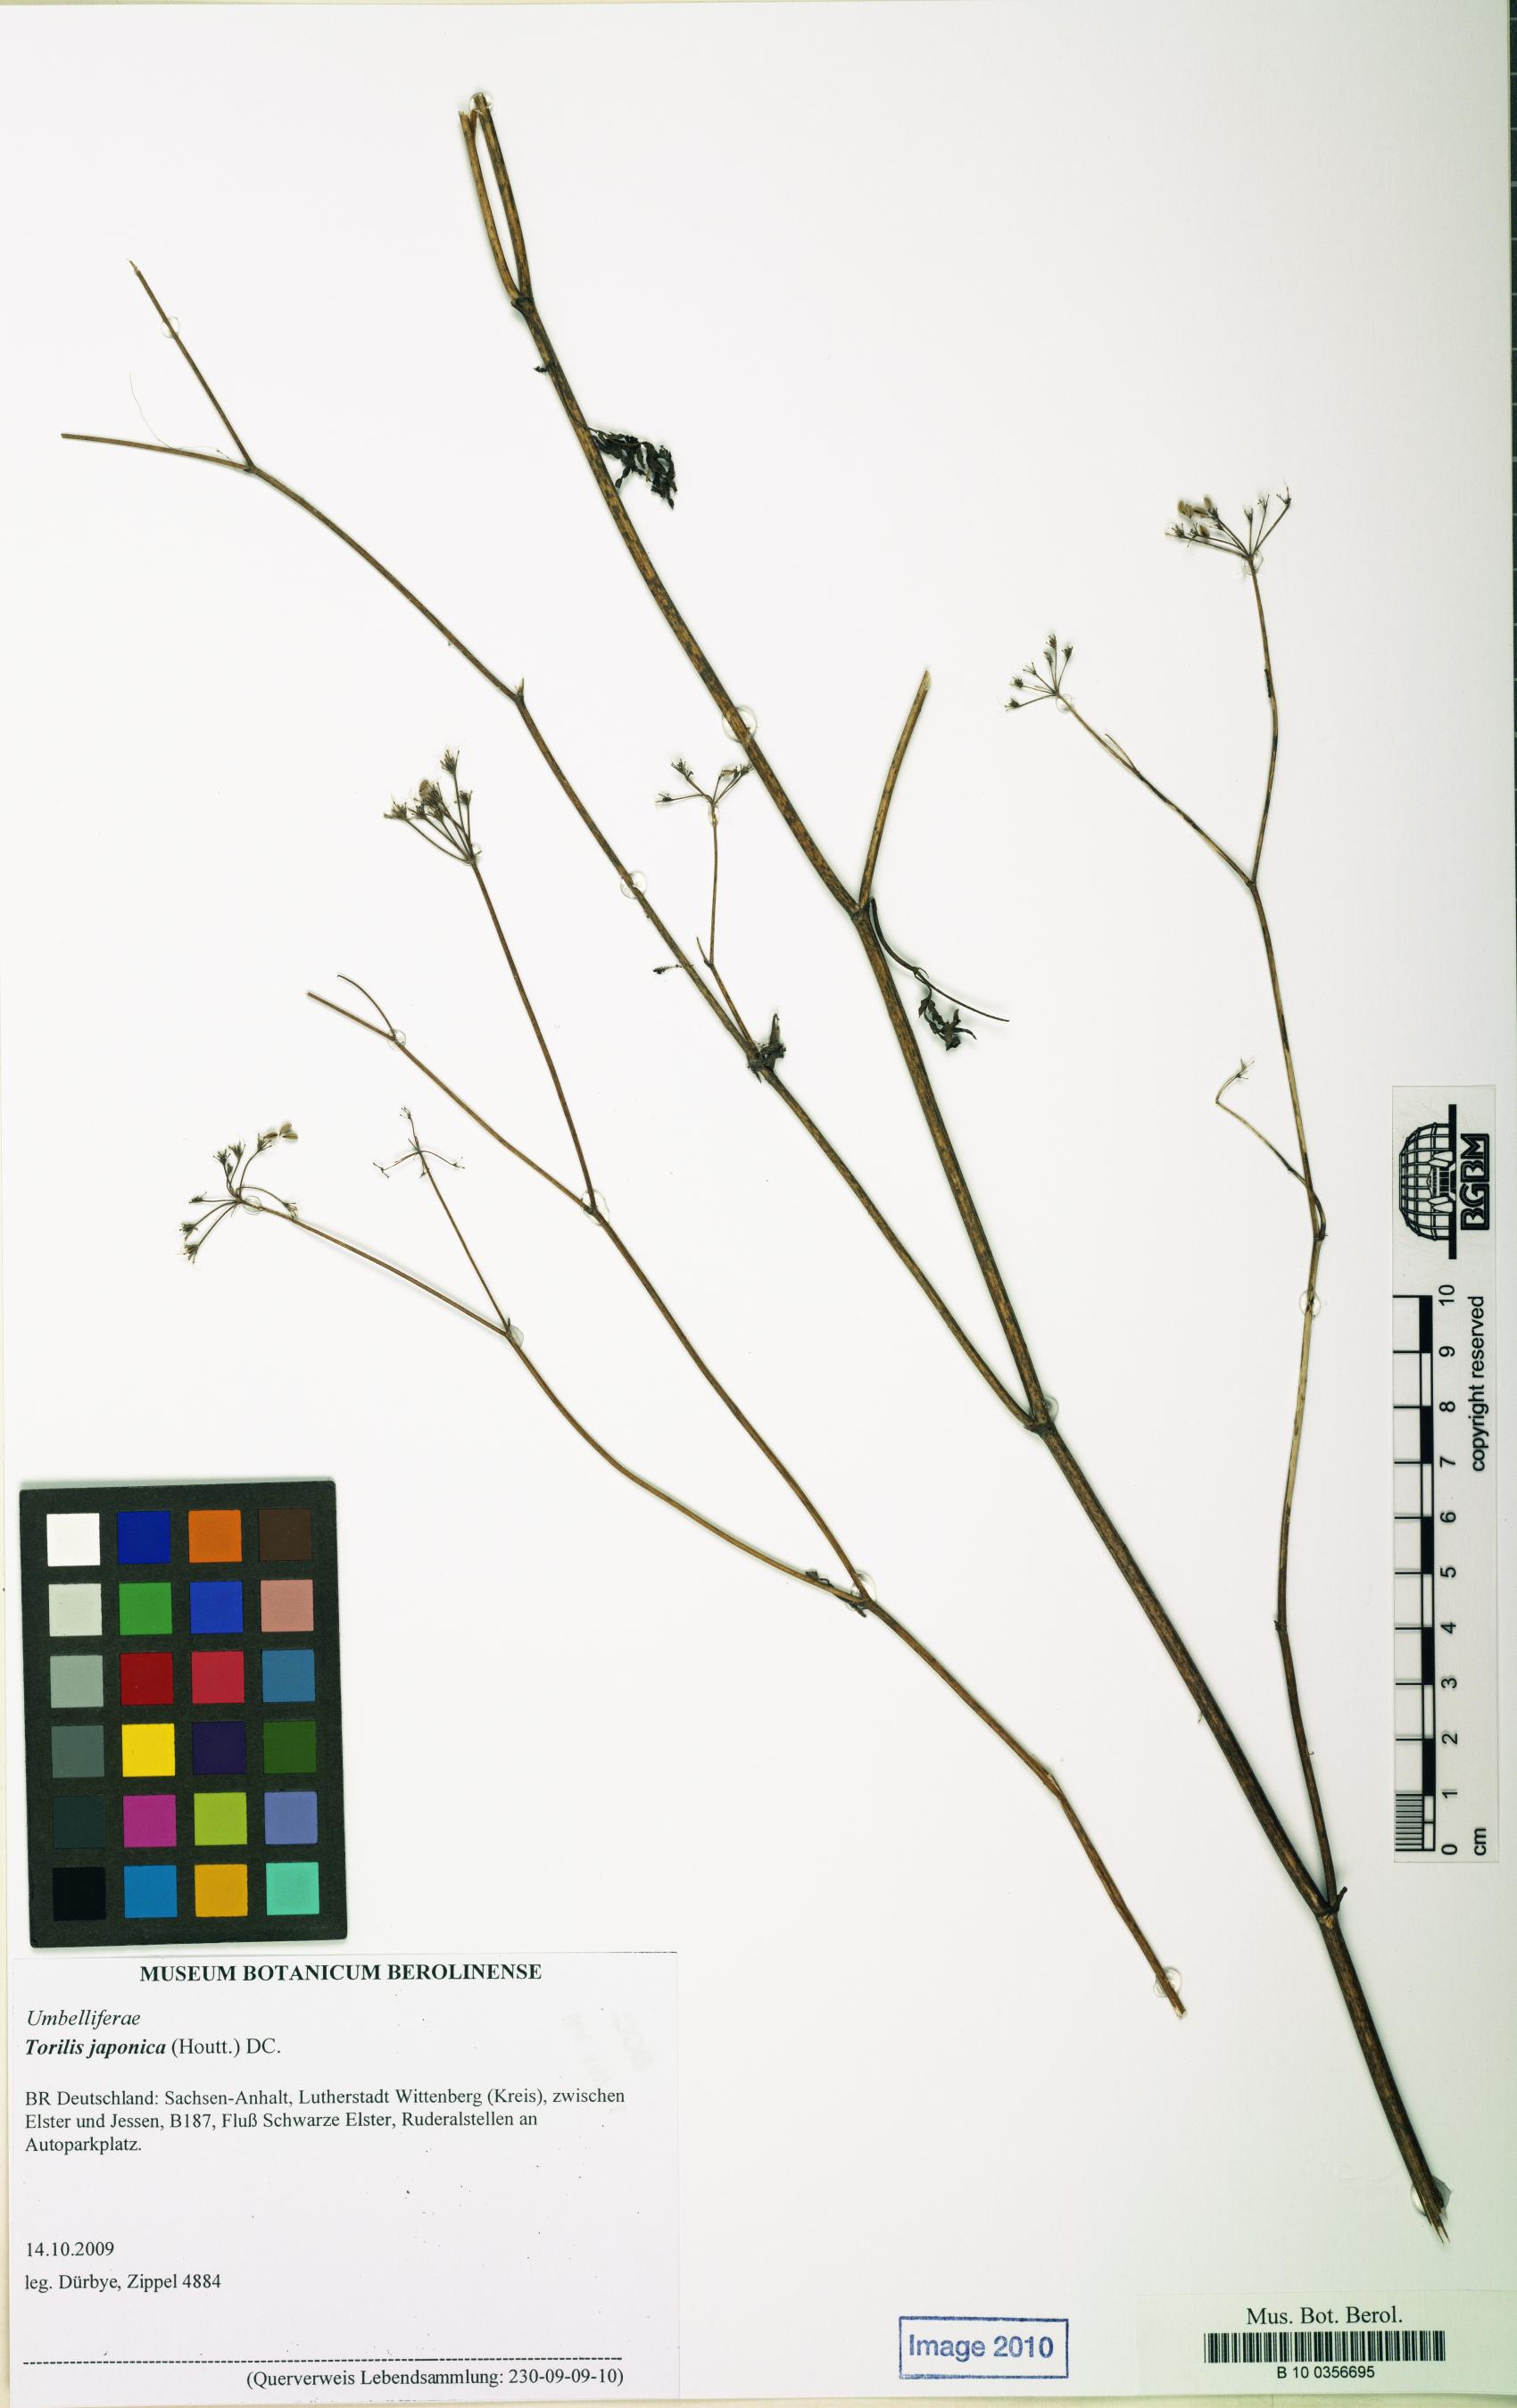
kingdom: Plantae
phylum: Tracheophyta
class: Magnoliopsida
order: Apiales
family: Apiaceae
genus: Torilis
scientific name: Torilis japonica
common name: Upright hedge-parsley
